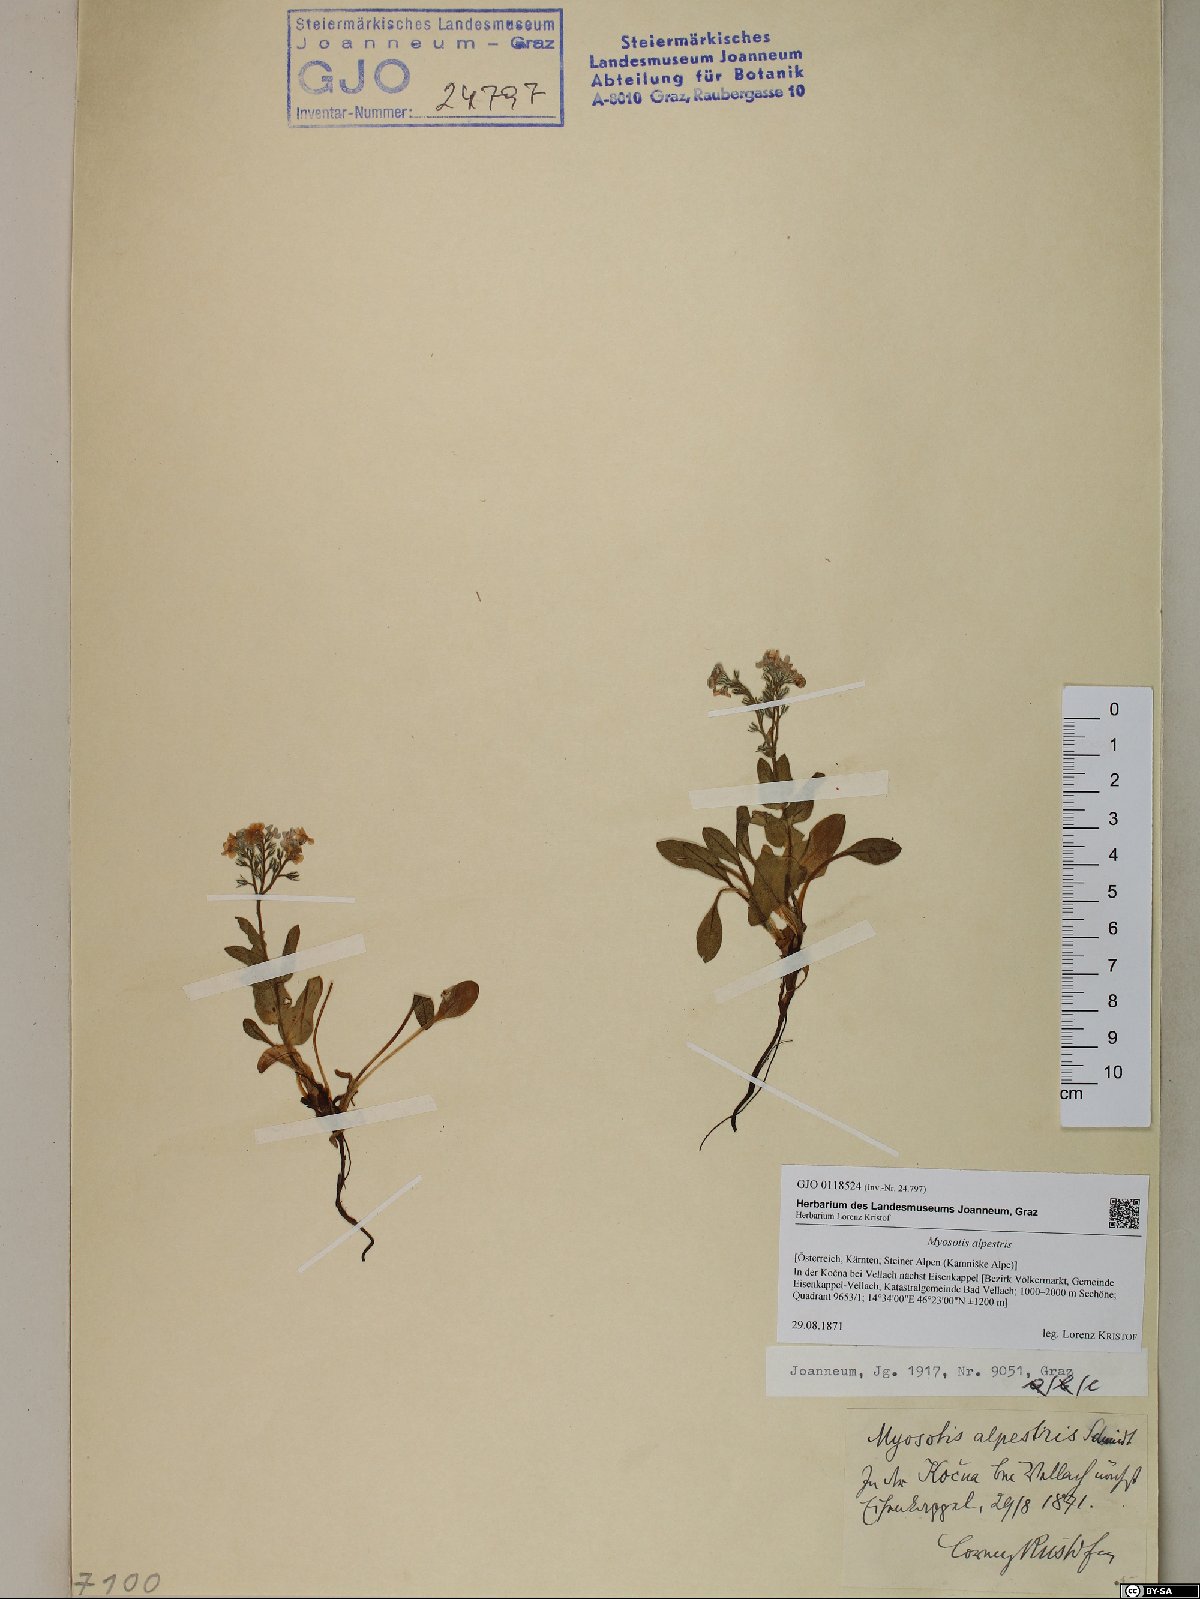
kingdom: Plantae
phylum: Tracheophyta
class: Magnoliopsida
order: Boraginales
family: Boraginaceae
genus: Myosotis
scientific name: Myosotis alpestris
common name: Alpine forget-me-not
